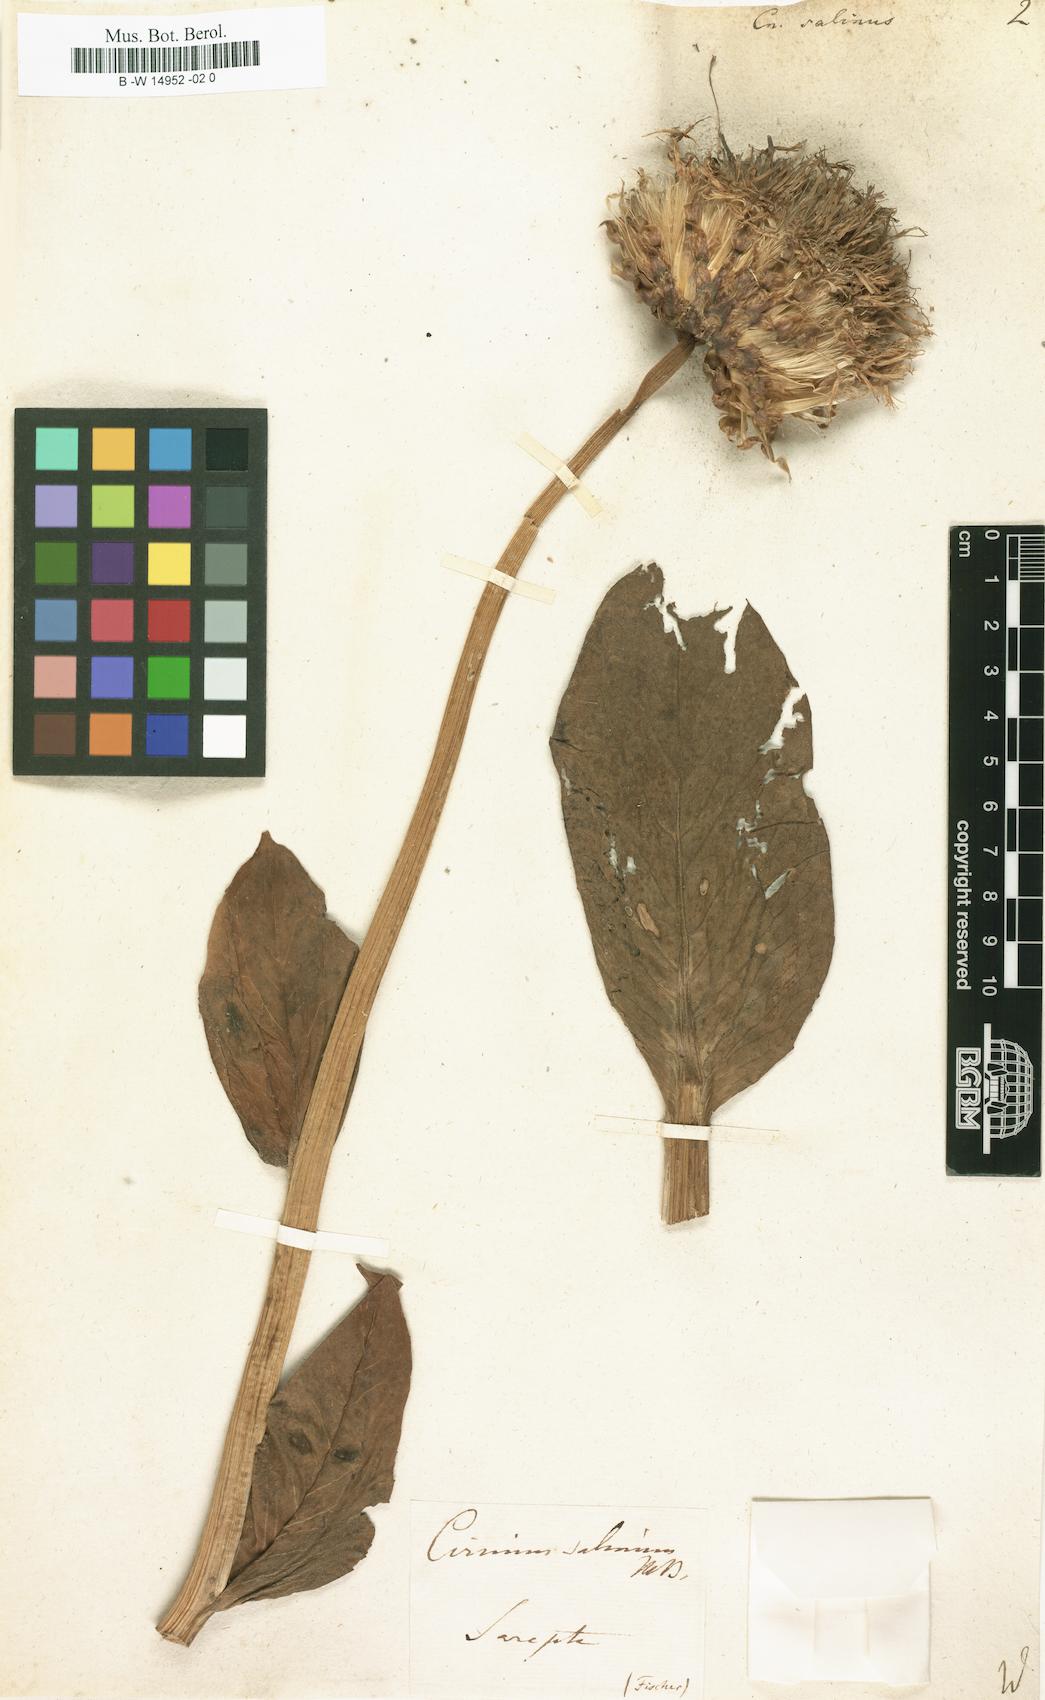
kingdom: Plantae
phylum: Tracheophyta
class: Magnoliopsida
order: Asterales
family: Asteraceae
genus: Klasea
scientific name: Klasea serratuloides
